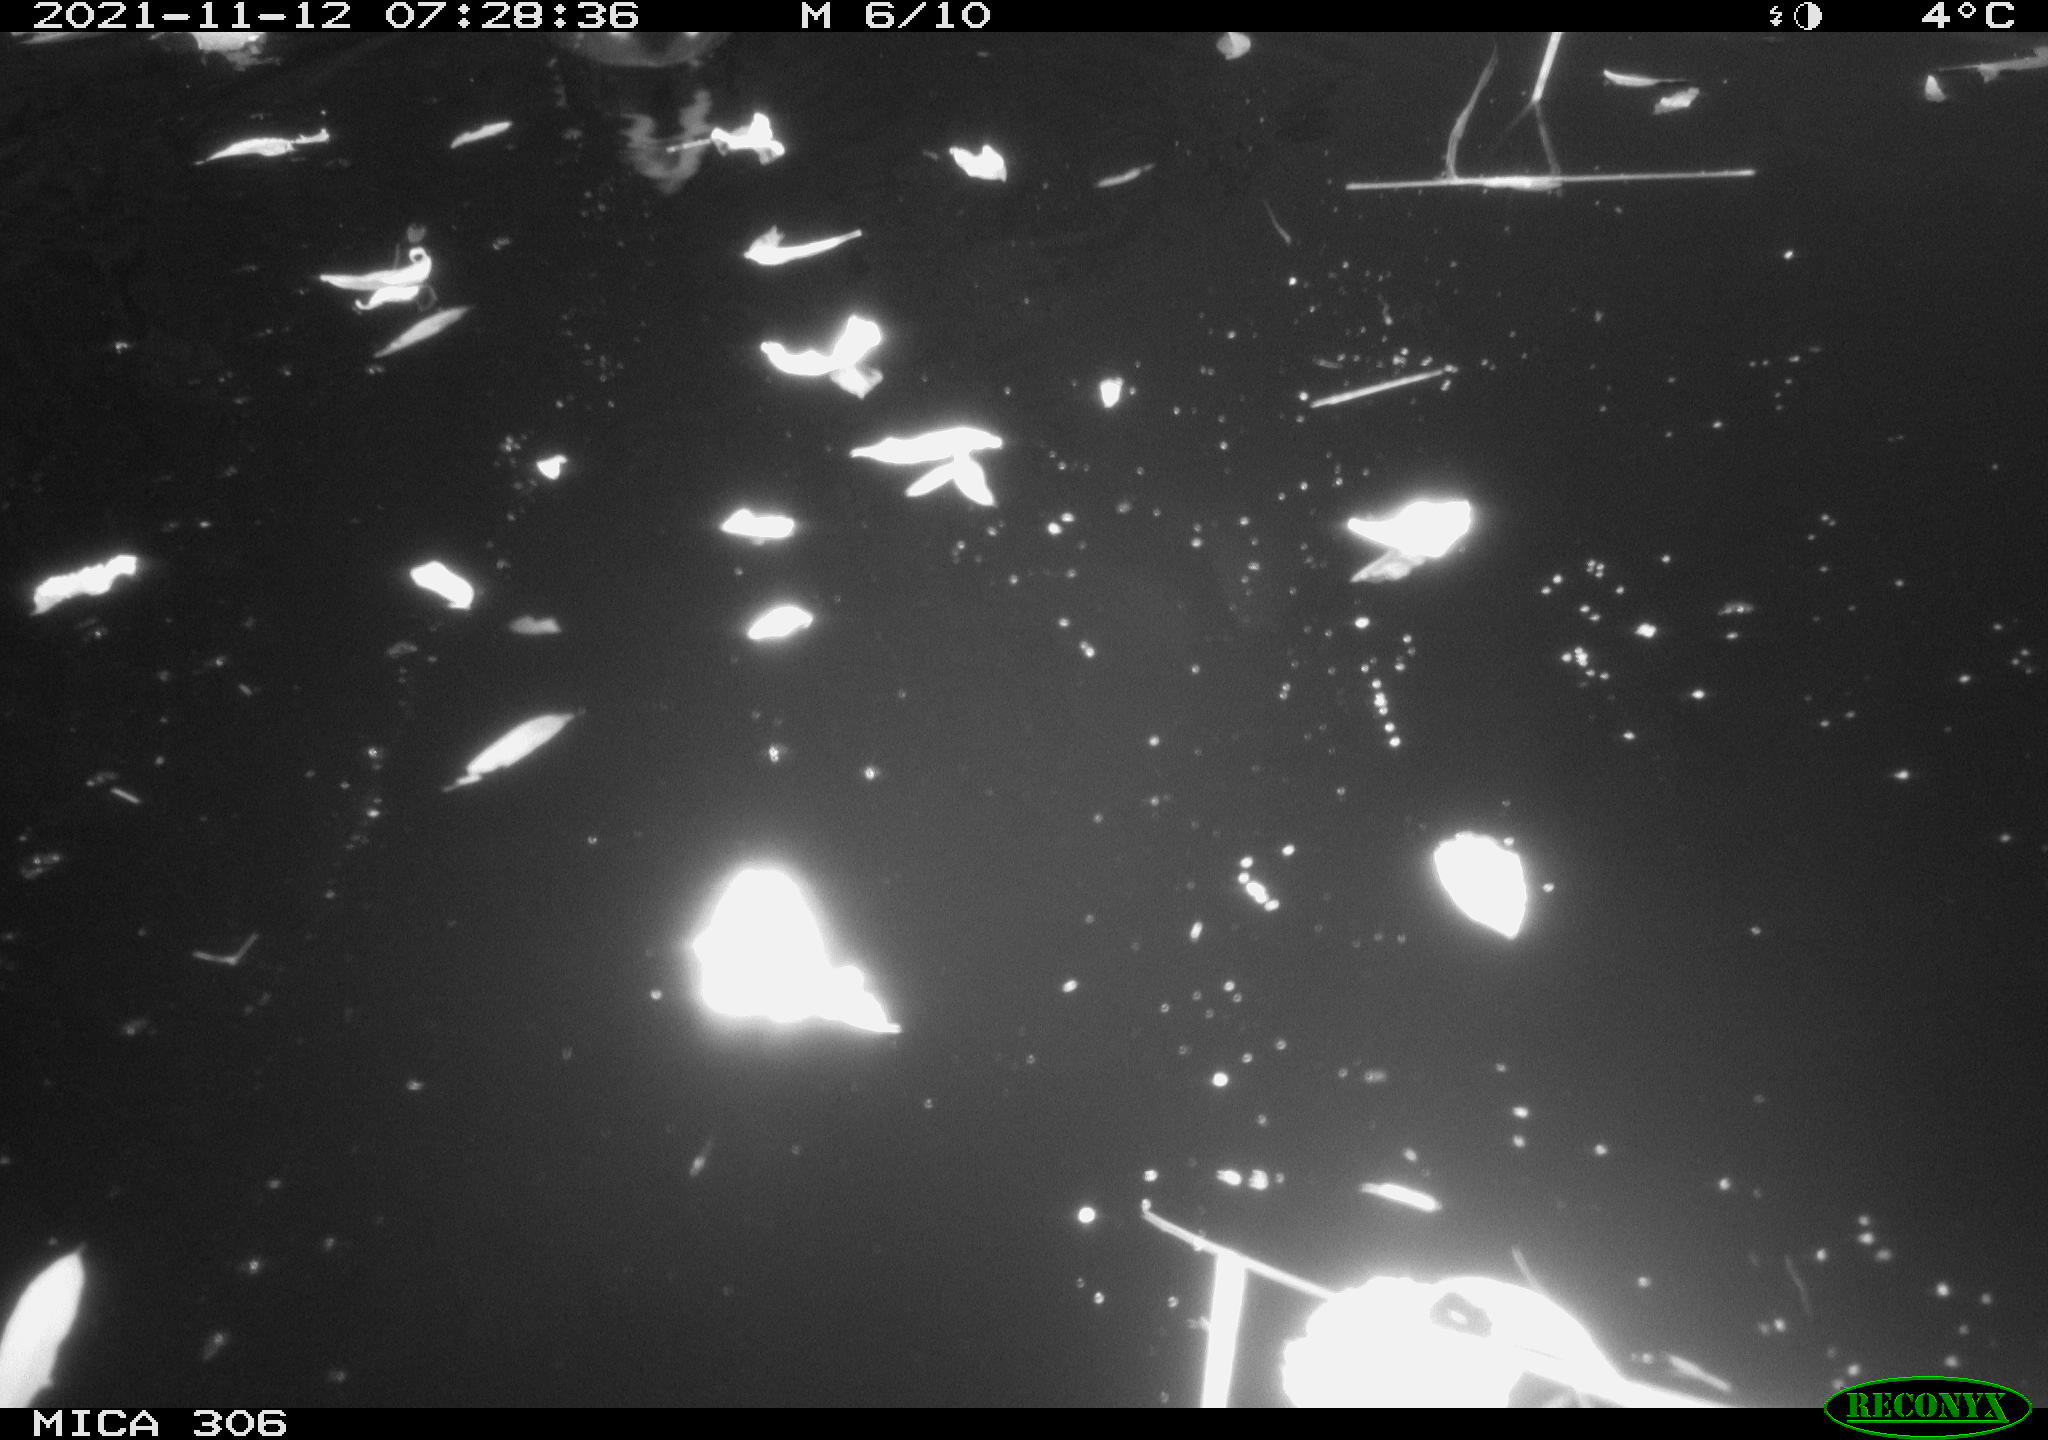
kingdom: Animalia
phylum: Chordata
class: Aves
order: Gruiformes
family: Rallidae
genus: Fulica
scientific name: Fulica atra
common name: Eurasian coot
